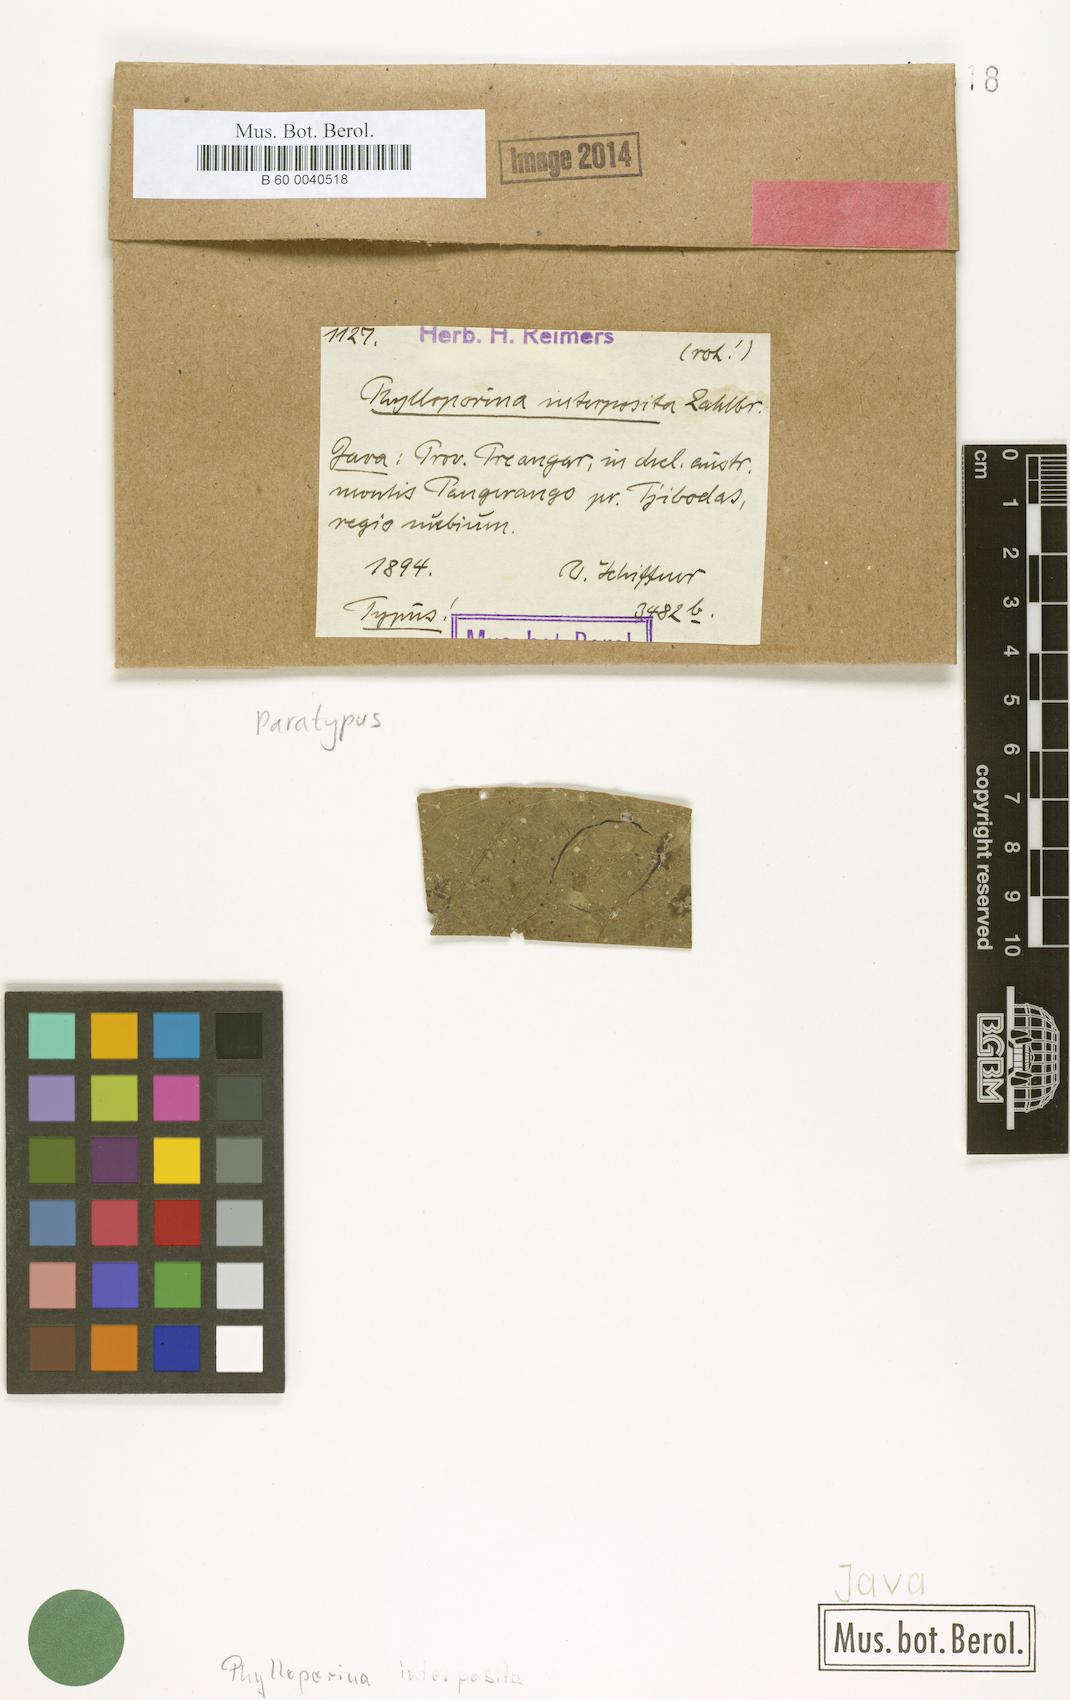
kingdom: Fungi
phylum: Ascomycota
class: Lecanoromycetes
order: Pertusariales
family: Pertusariaceae
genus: Phylloporina
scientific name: Phylloporina
